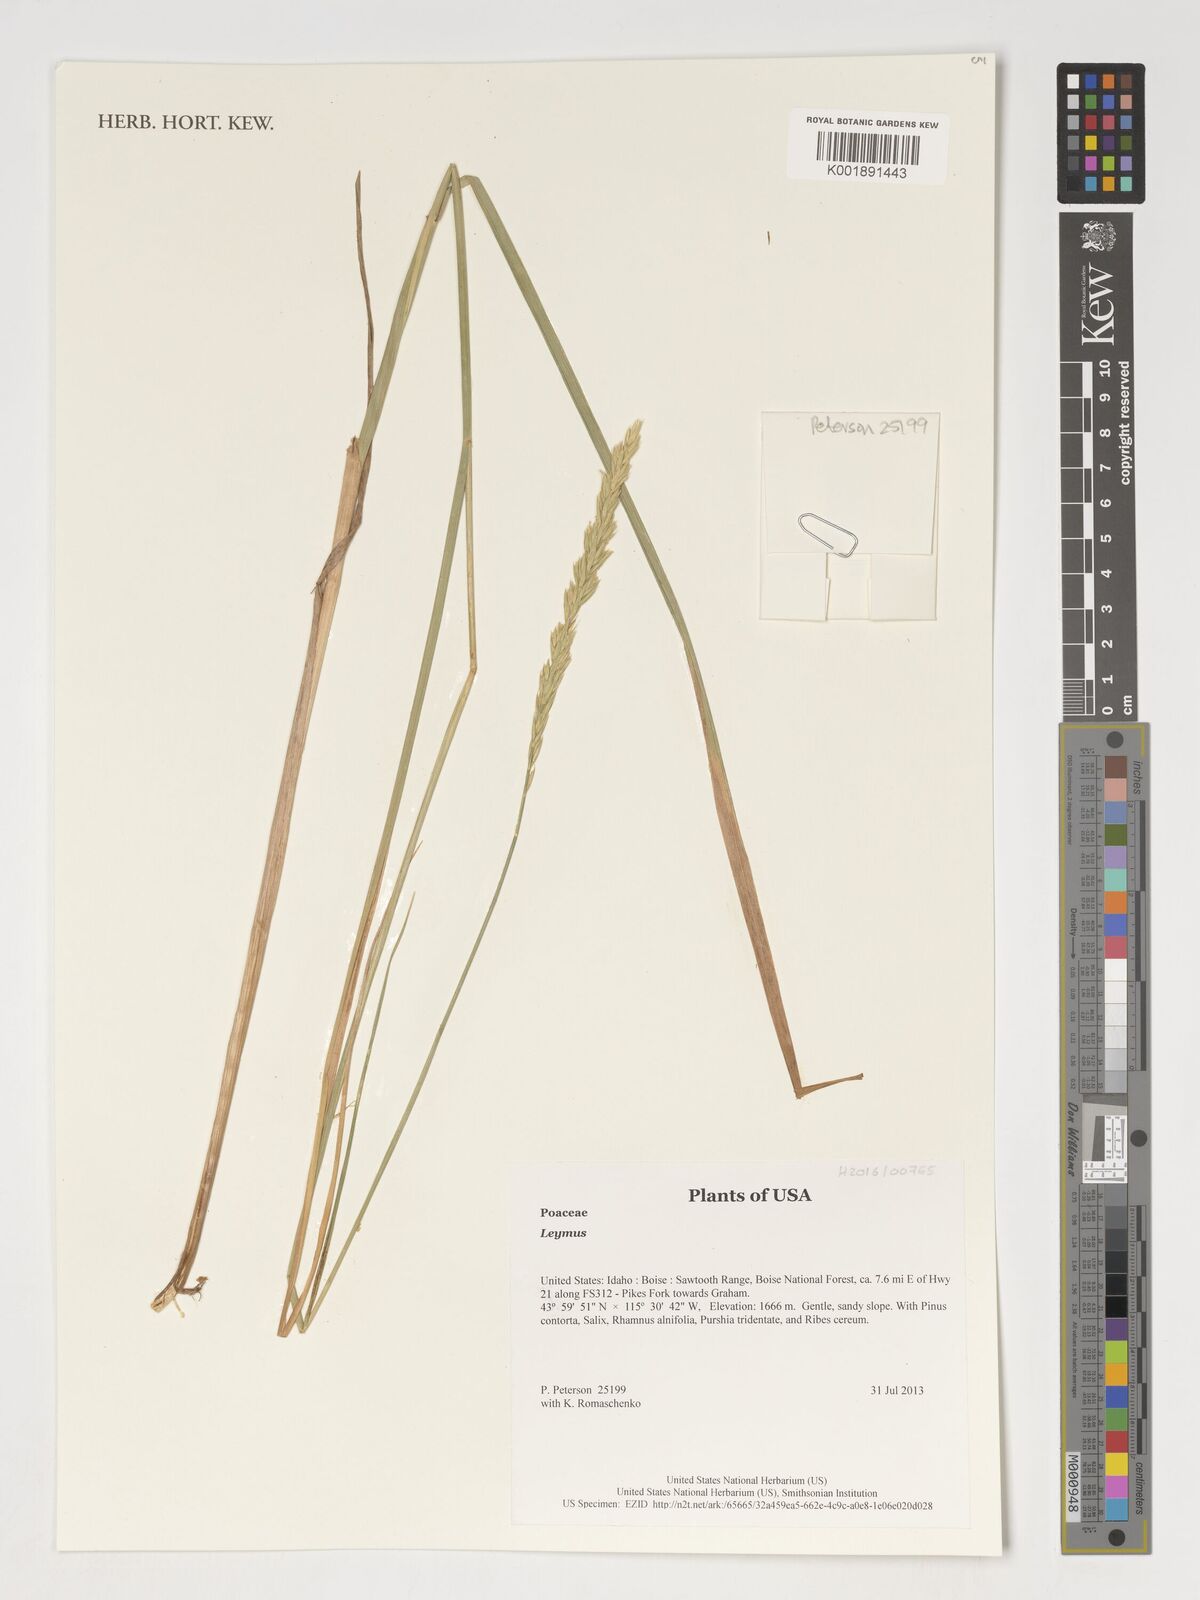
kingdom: Plantae
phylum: Tracheophyta
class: Liliopsida
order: Poales
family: Poaceae
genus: Leymus
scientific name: Leymus
